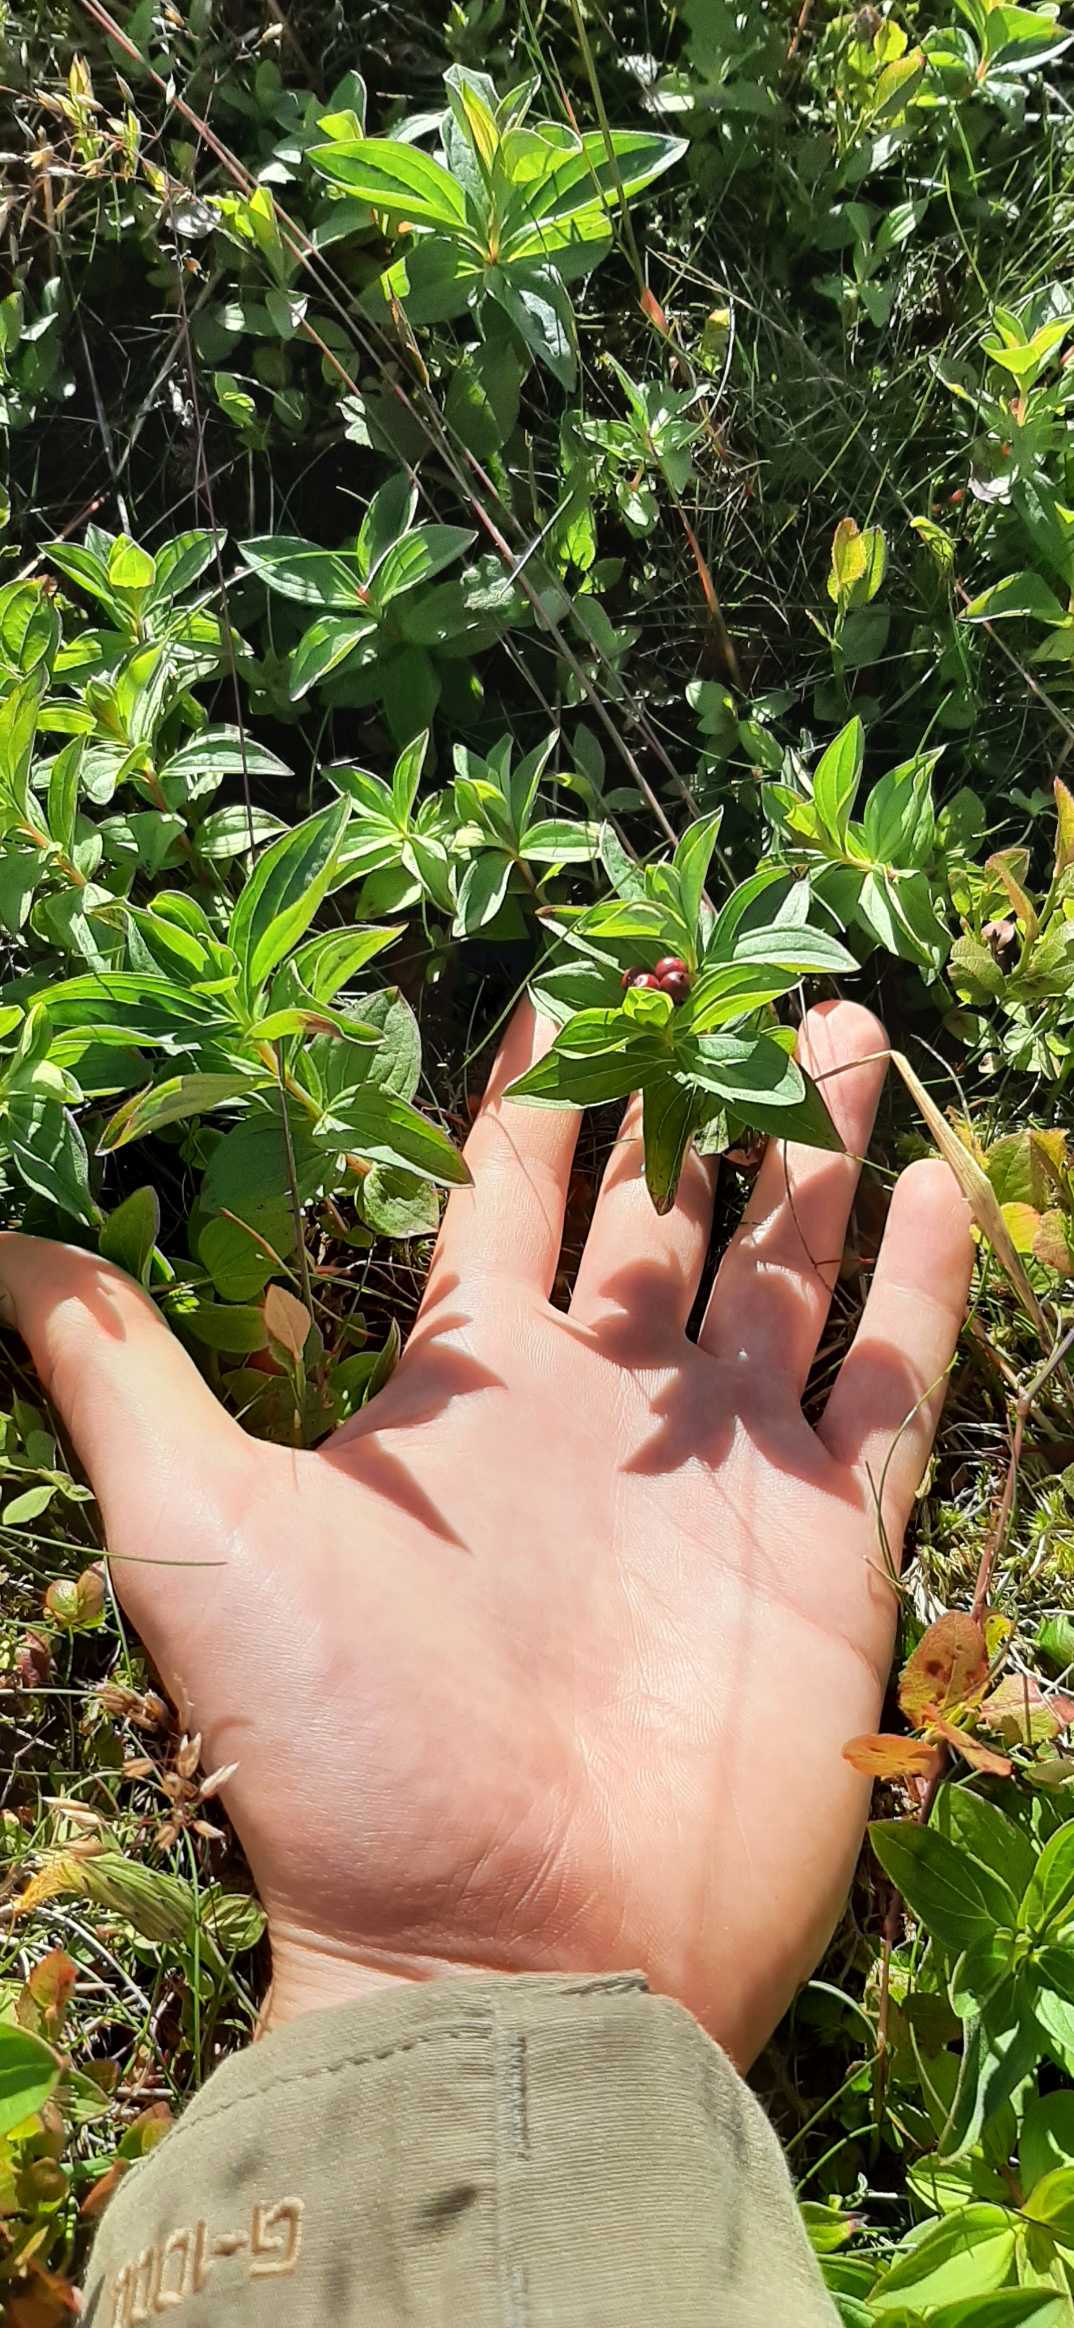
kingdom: Plantae
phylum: Tracheophyta
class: Magnoliopsida
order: Cornales
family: Cornaceae
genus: Cornus
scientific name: Cornus suecica
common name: Hønsebær
